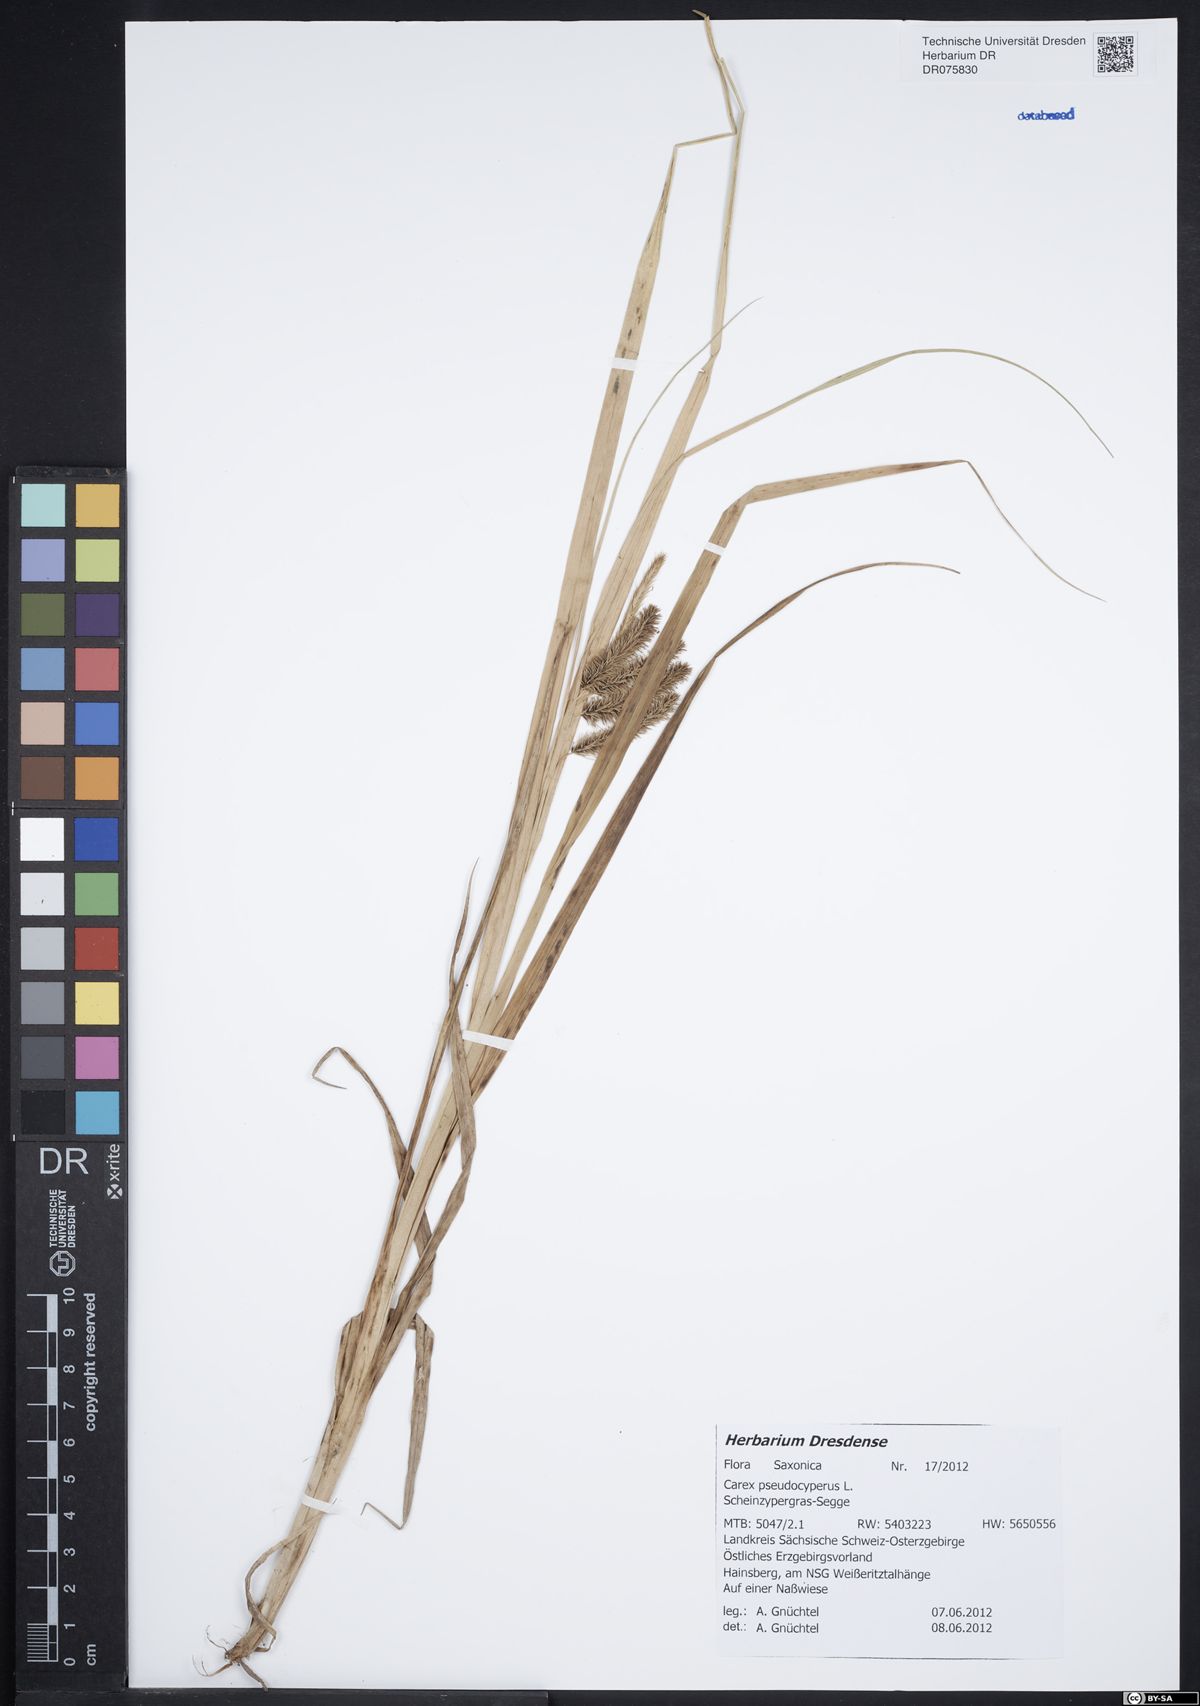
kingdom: Plantae
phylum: Tracheophyta
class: Liliopsida
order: Poales
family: Cyperaceae
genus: Carex
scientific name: Carex pseudocyperus
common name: Cyperus sedge
